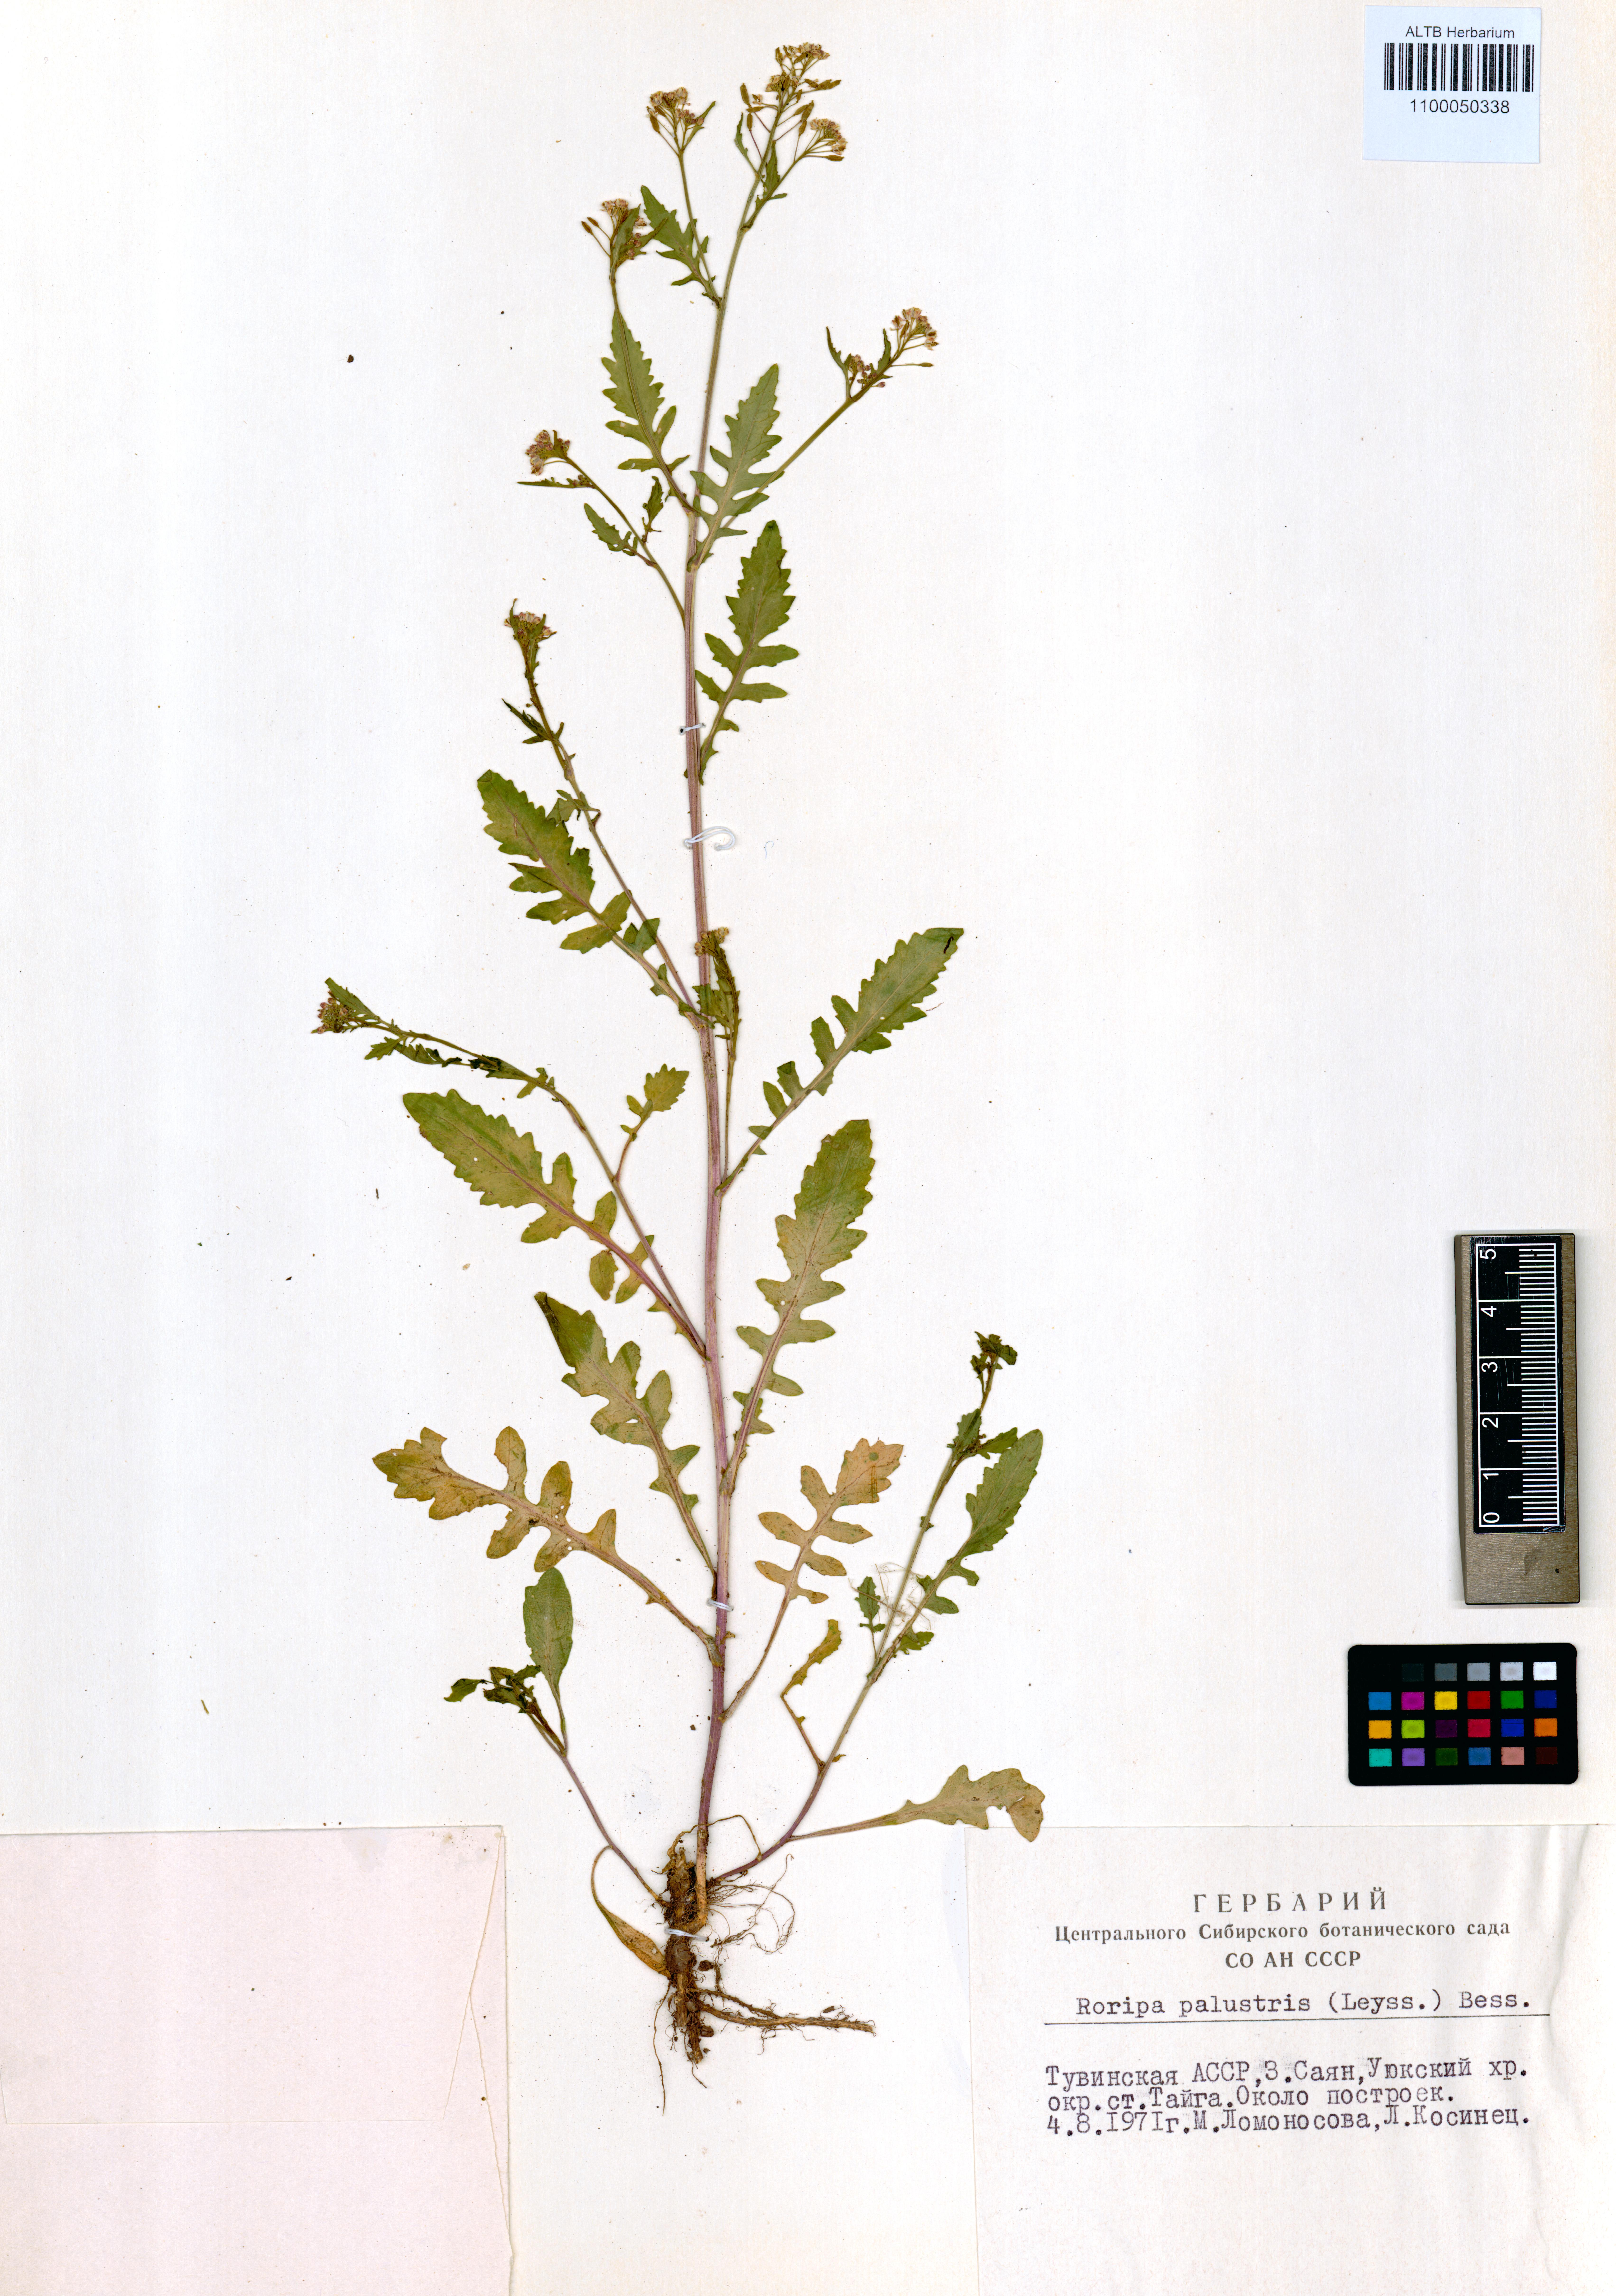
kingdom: Plantae
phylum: Tracheophyta
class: Magnoliopsida
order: Brassicales
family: Brassicaceae
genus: Rorippa
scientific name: Rorippa palustris
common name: Marsh yellow-cress
